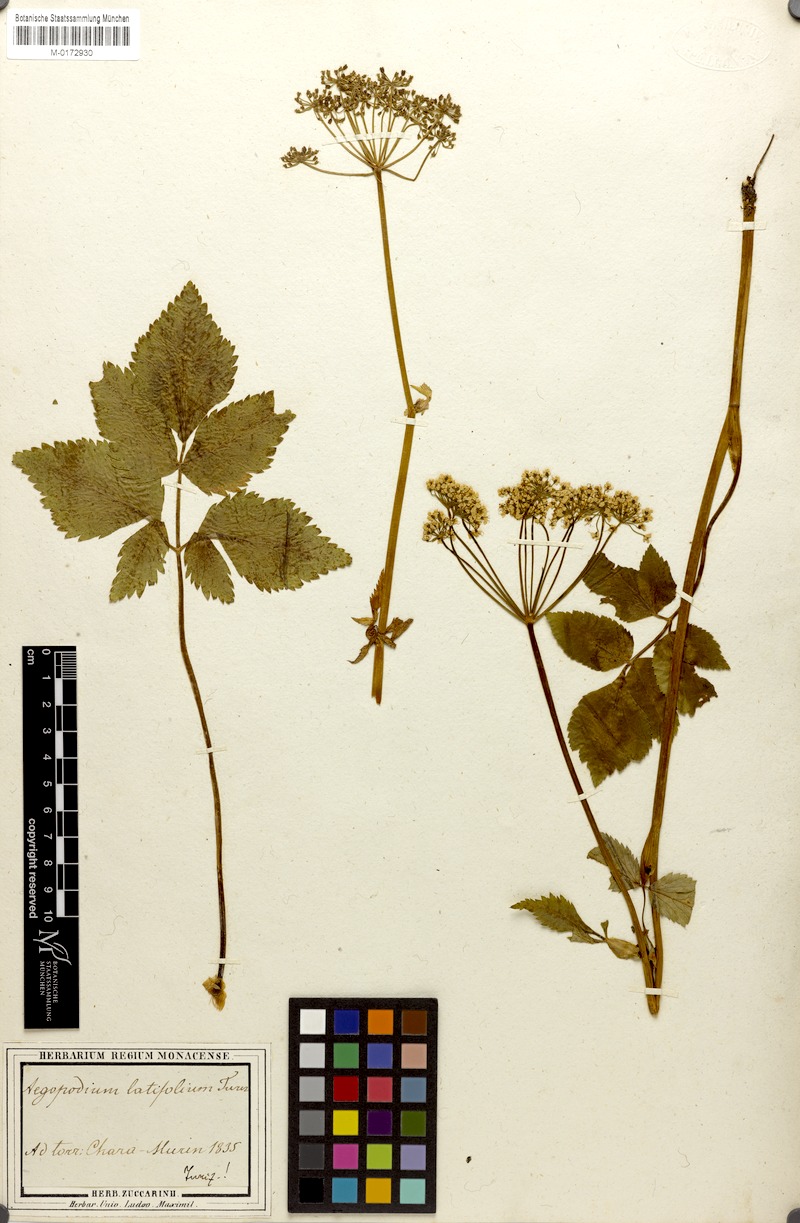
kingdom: Plantae
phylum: Tracheophyta
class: Magnoliopsida
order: Apiales
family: Apiaceae
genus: Aegopodium
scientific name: Aegopodium latifolium
